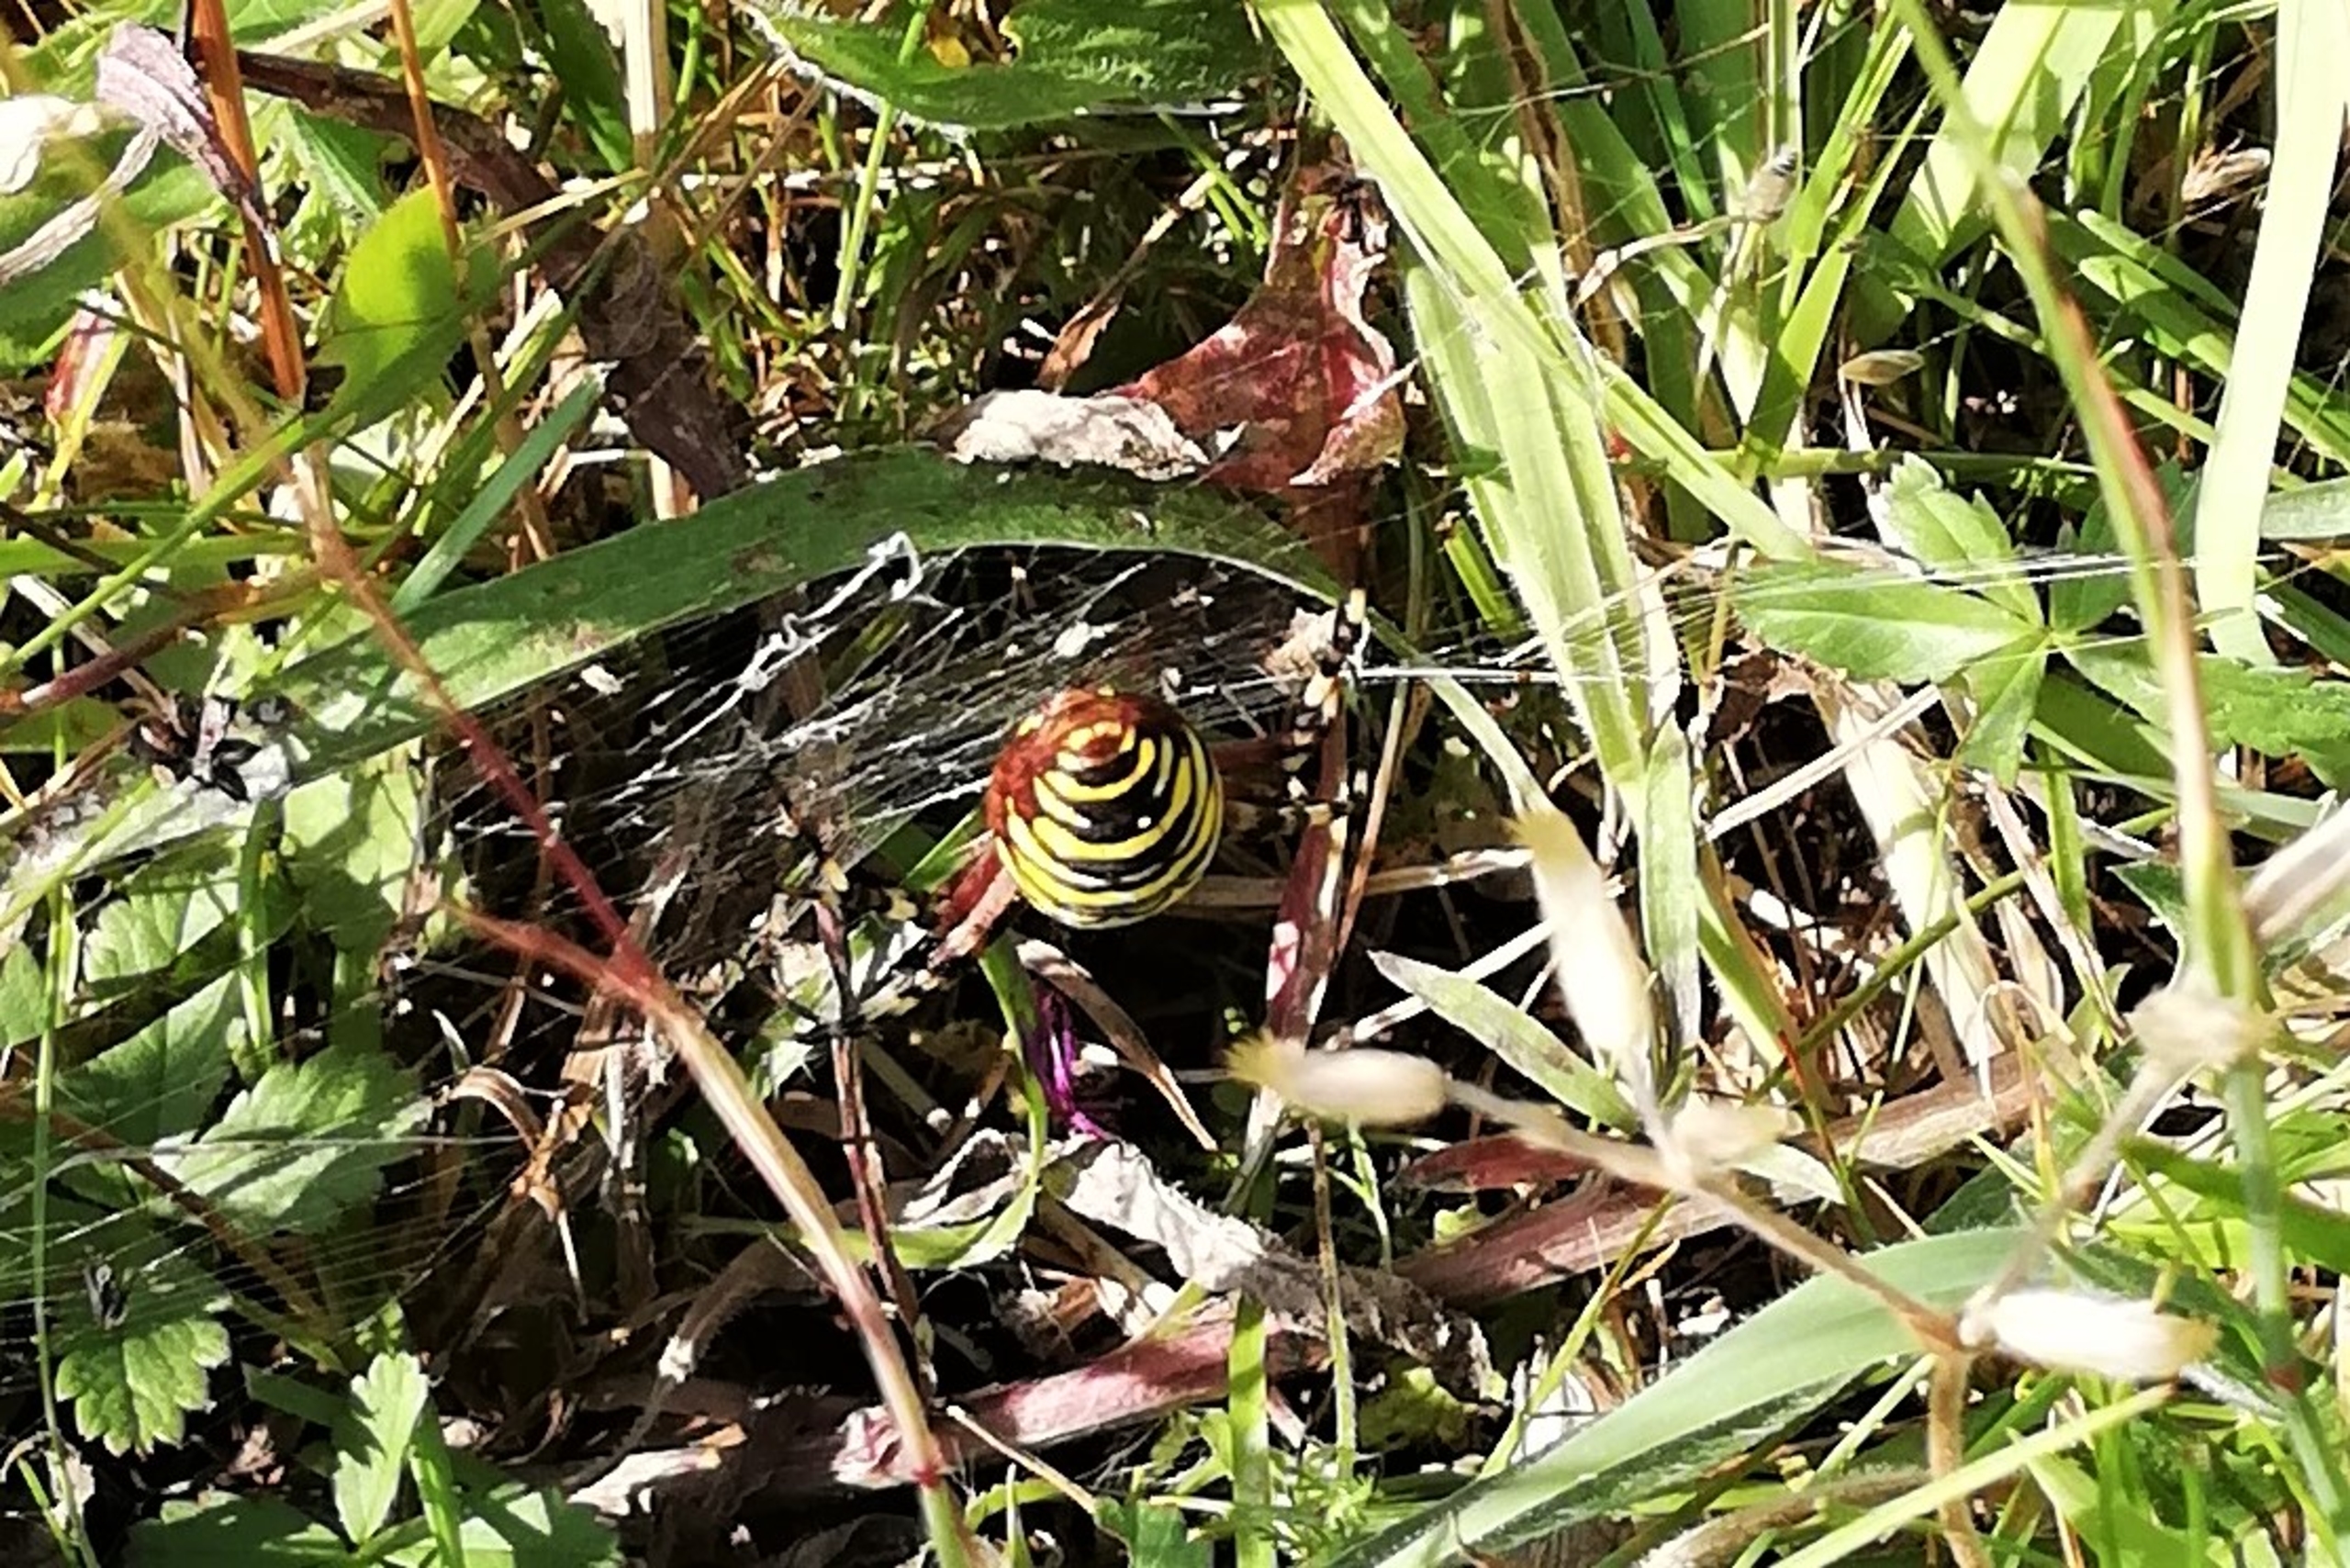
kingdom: Animalia
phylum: Arthropoda
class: Arachnida
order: Araneae
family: Araneidae
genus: Argiope
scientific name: Argiope bruennichi
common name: Hvepseedderkop
